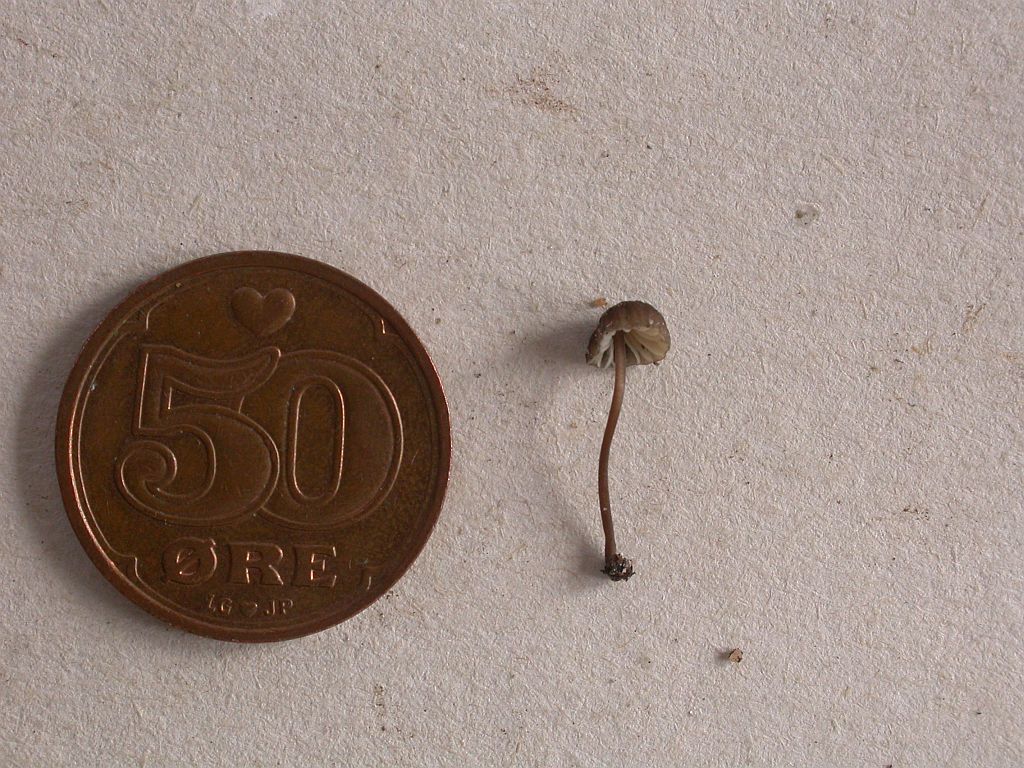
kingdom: Fungi
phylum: Basidiomycota
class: Agaricomycetes
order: Agaricales
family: Mycenaceae
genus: Mycena
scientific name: Mycena galopus
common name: hvidmælket huesvamp
